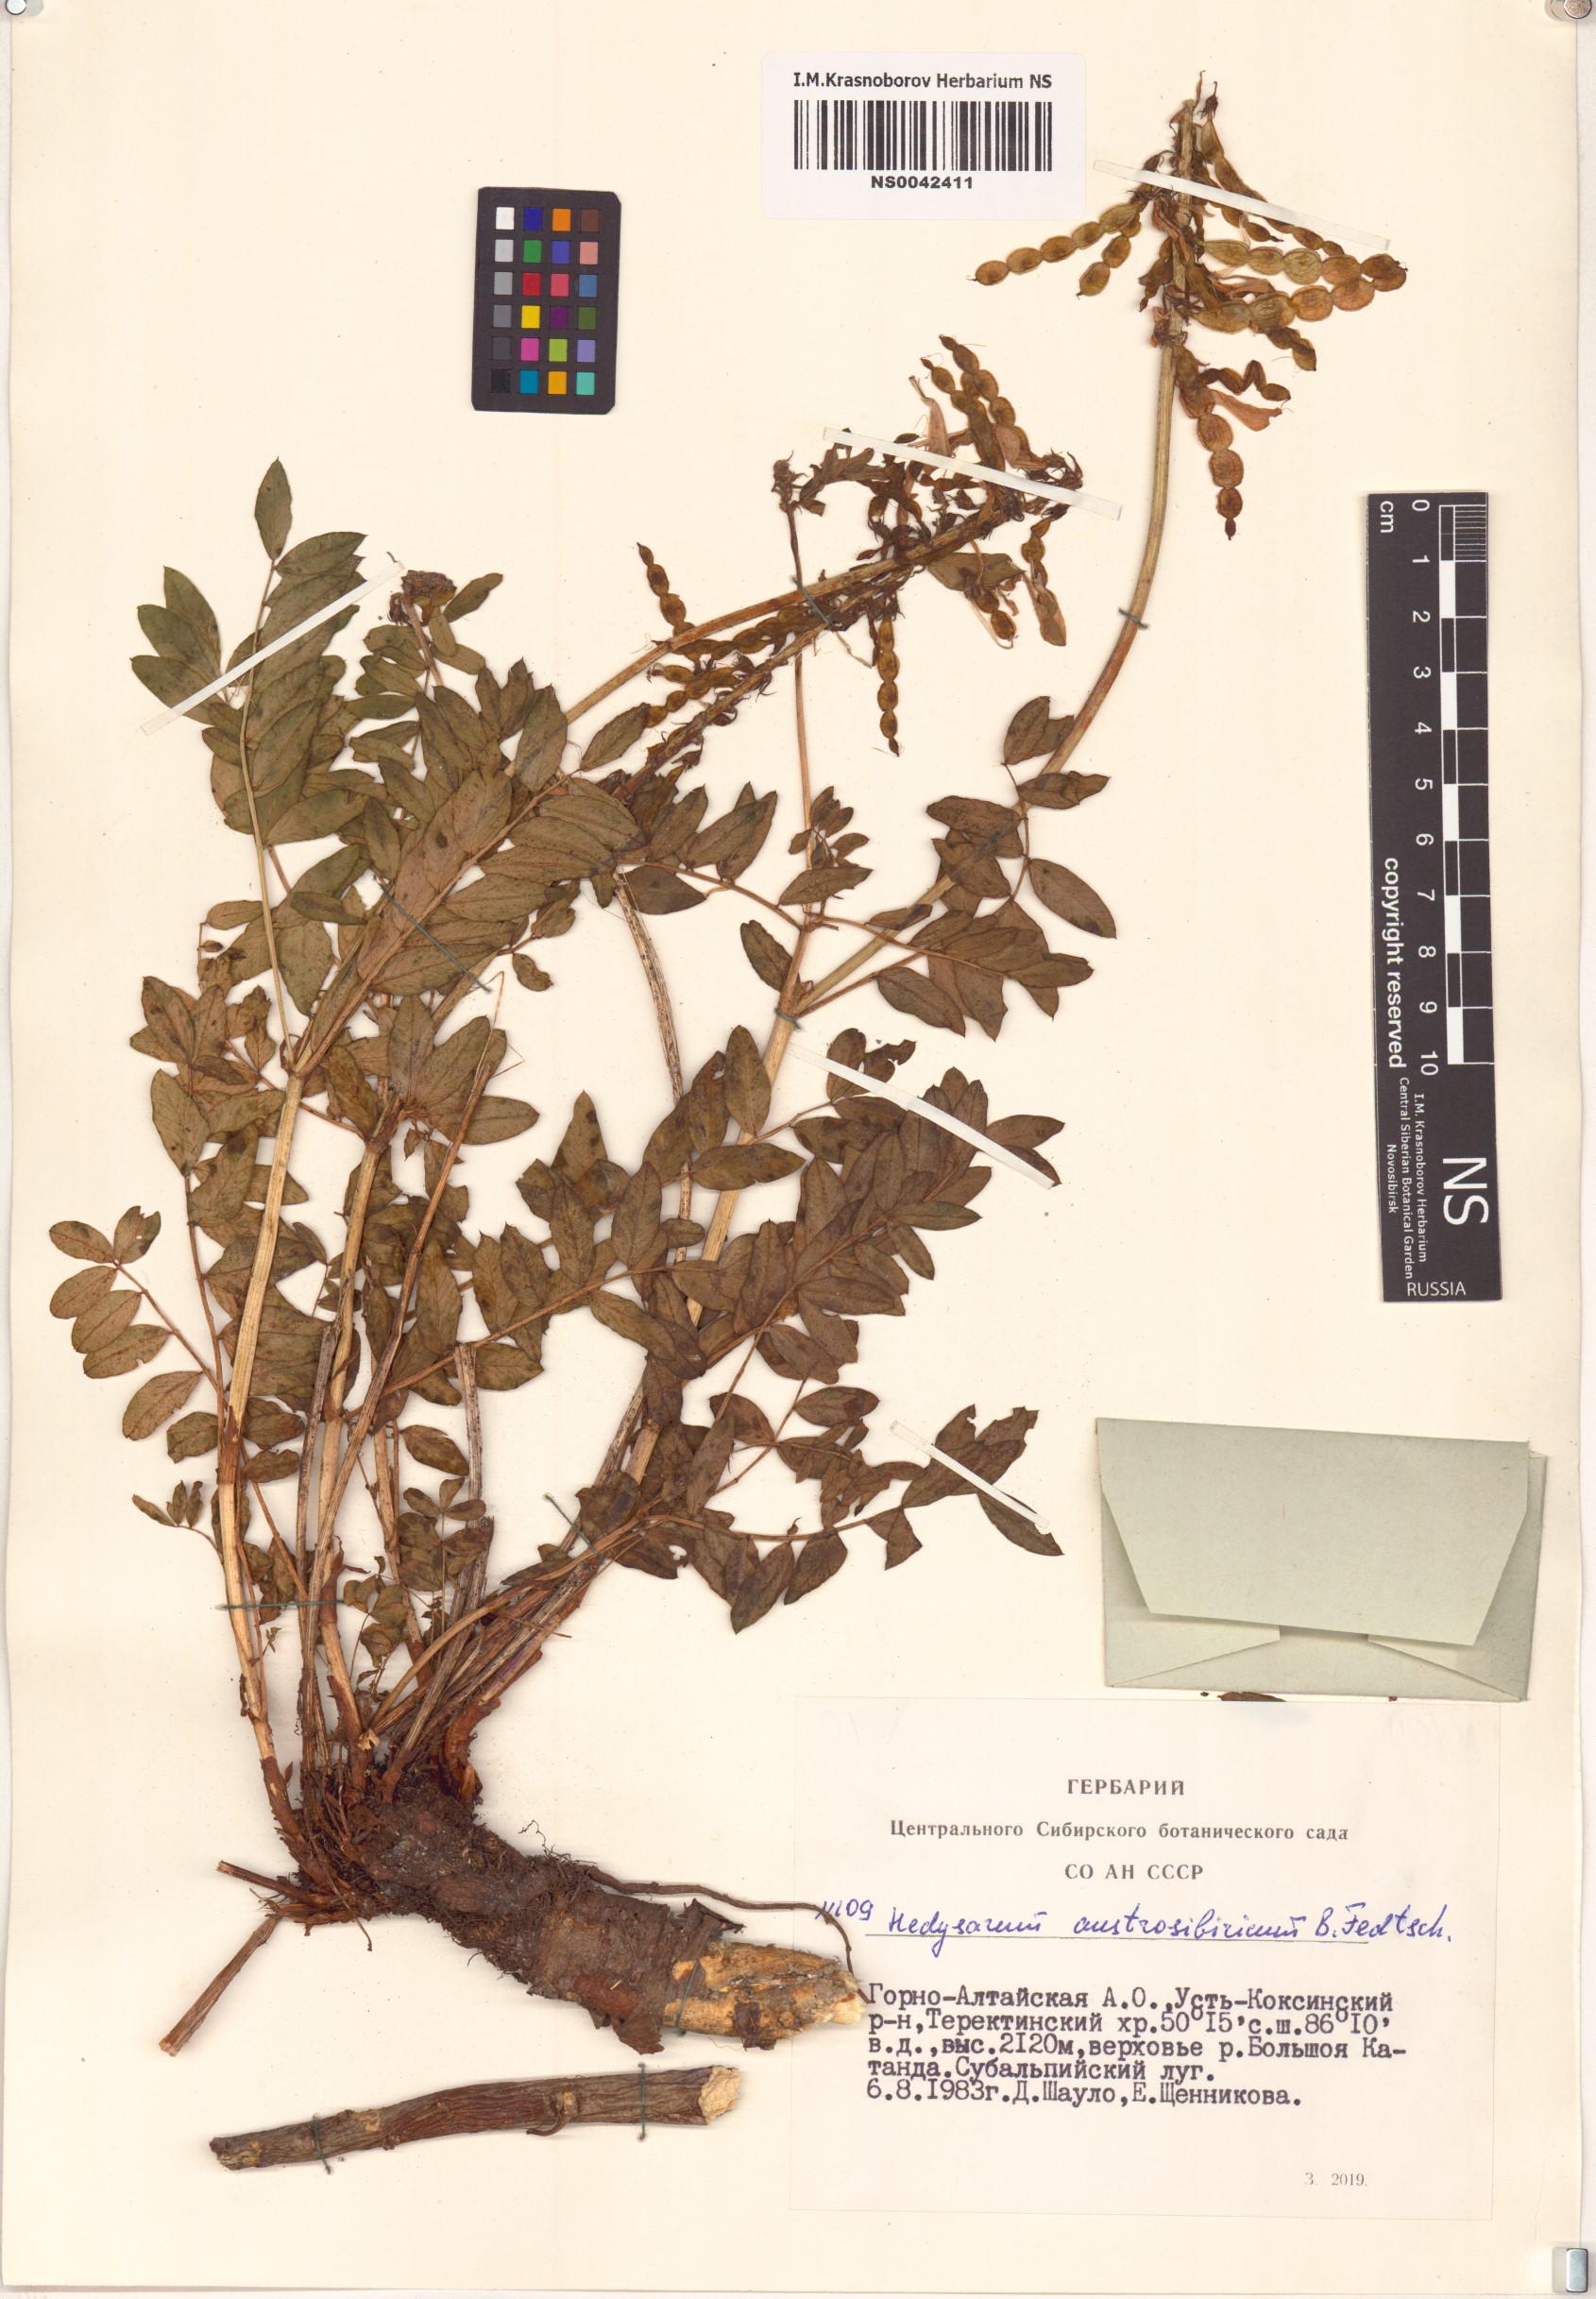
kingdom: Plantae
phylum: Tracheophyta
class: Magnoliopsida
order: Fabales
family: Fabaceae
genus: Hedysarum
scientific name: Hedysarum neglectum
